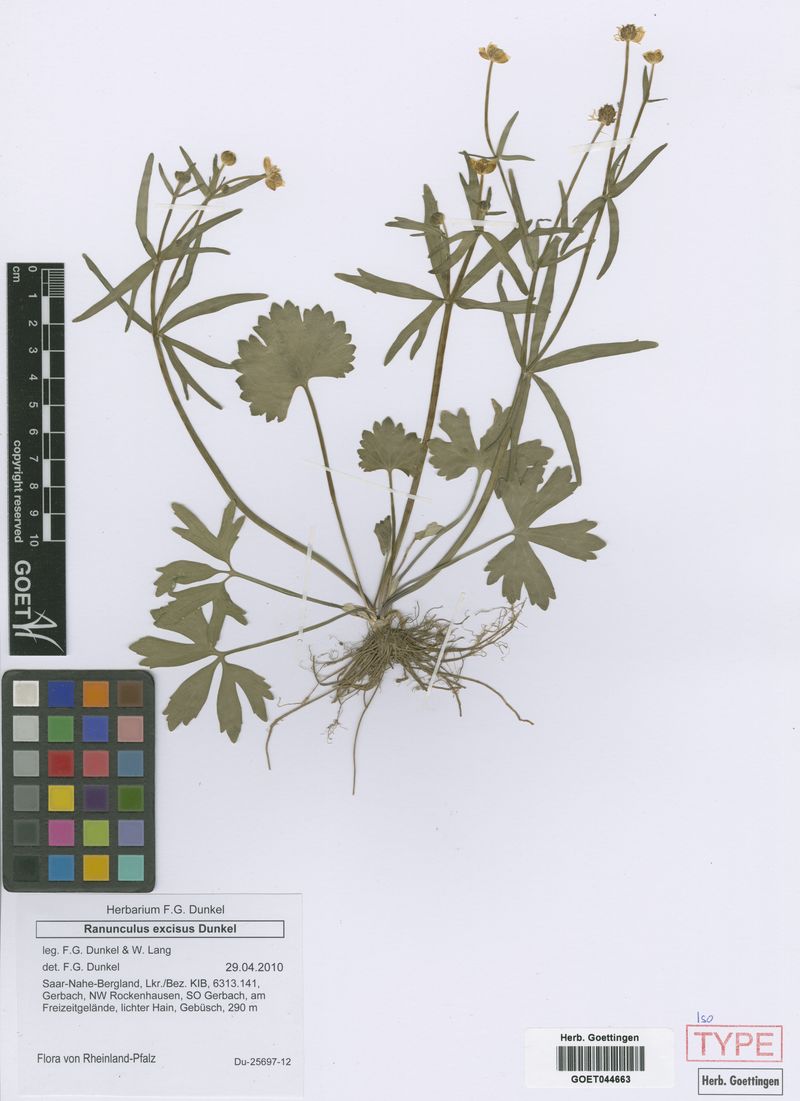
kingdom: Plantae
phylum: Tracheophyta
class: Magnoliopsida
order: Ranunculales
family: Ranunculaceae
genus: Ranunculus
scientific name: Ranunculus excisus
